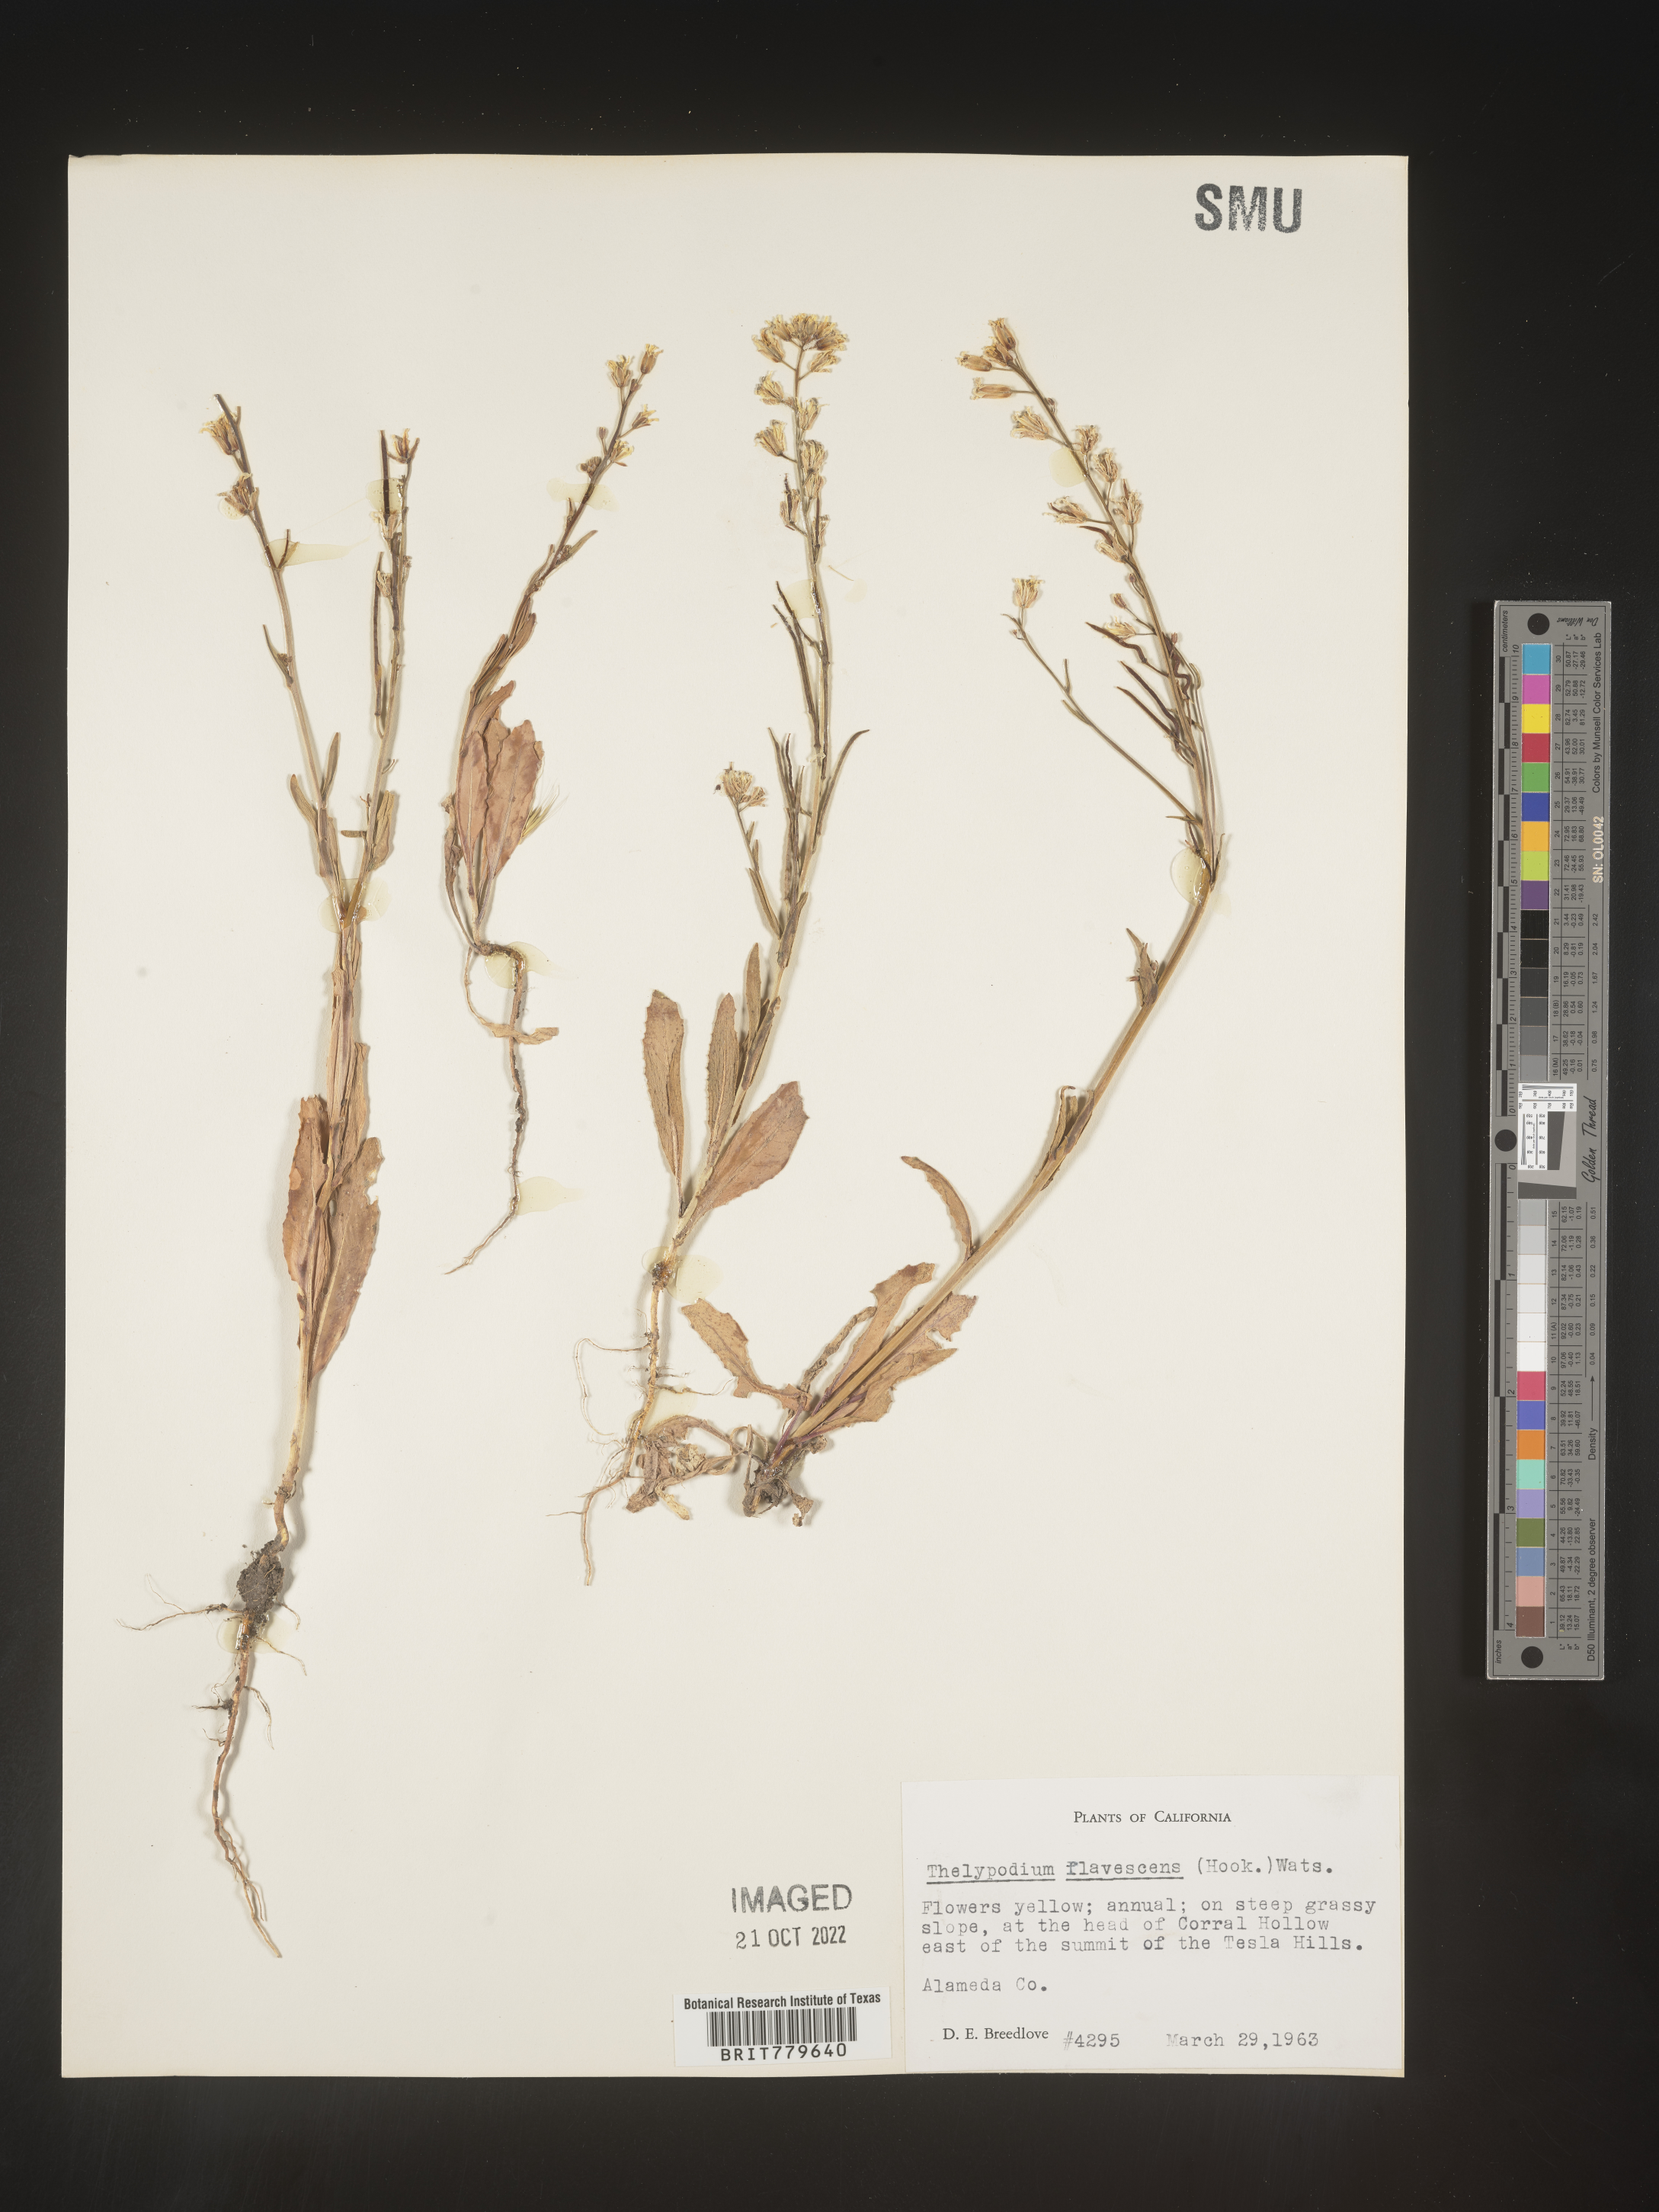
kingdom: Plantae
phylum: Tracheophyta
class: Magnoliopsida
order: Brassicales
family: Brassicaceae
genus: Thelypodium
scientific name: Thelypodium
